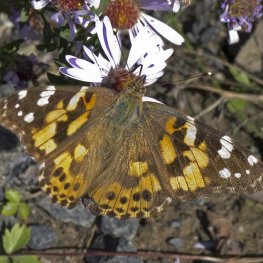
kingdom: Animalia
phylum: Arthropoda
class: Insecta
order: Lepidoptera
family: Nymphalidae
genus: Vanessa
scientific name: Vanessa cardui
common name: Painted Lady
